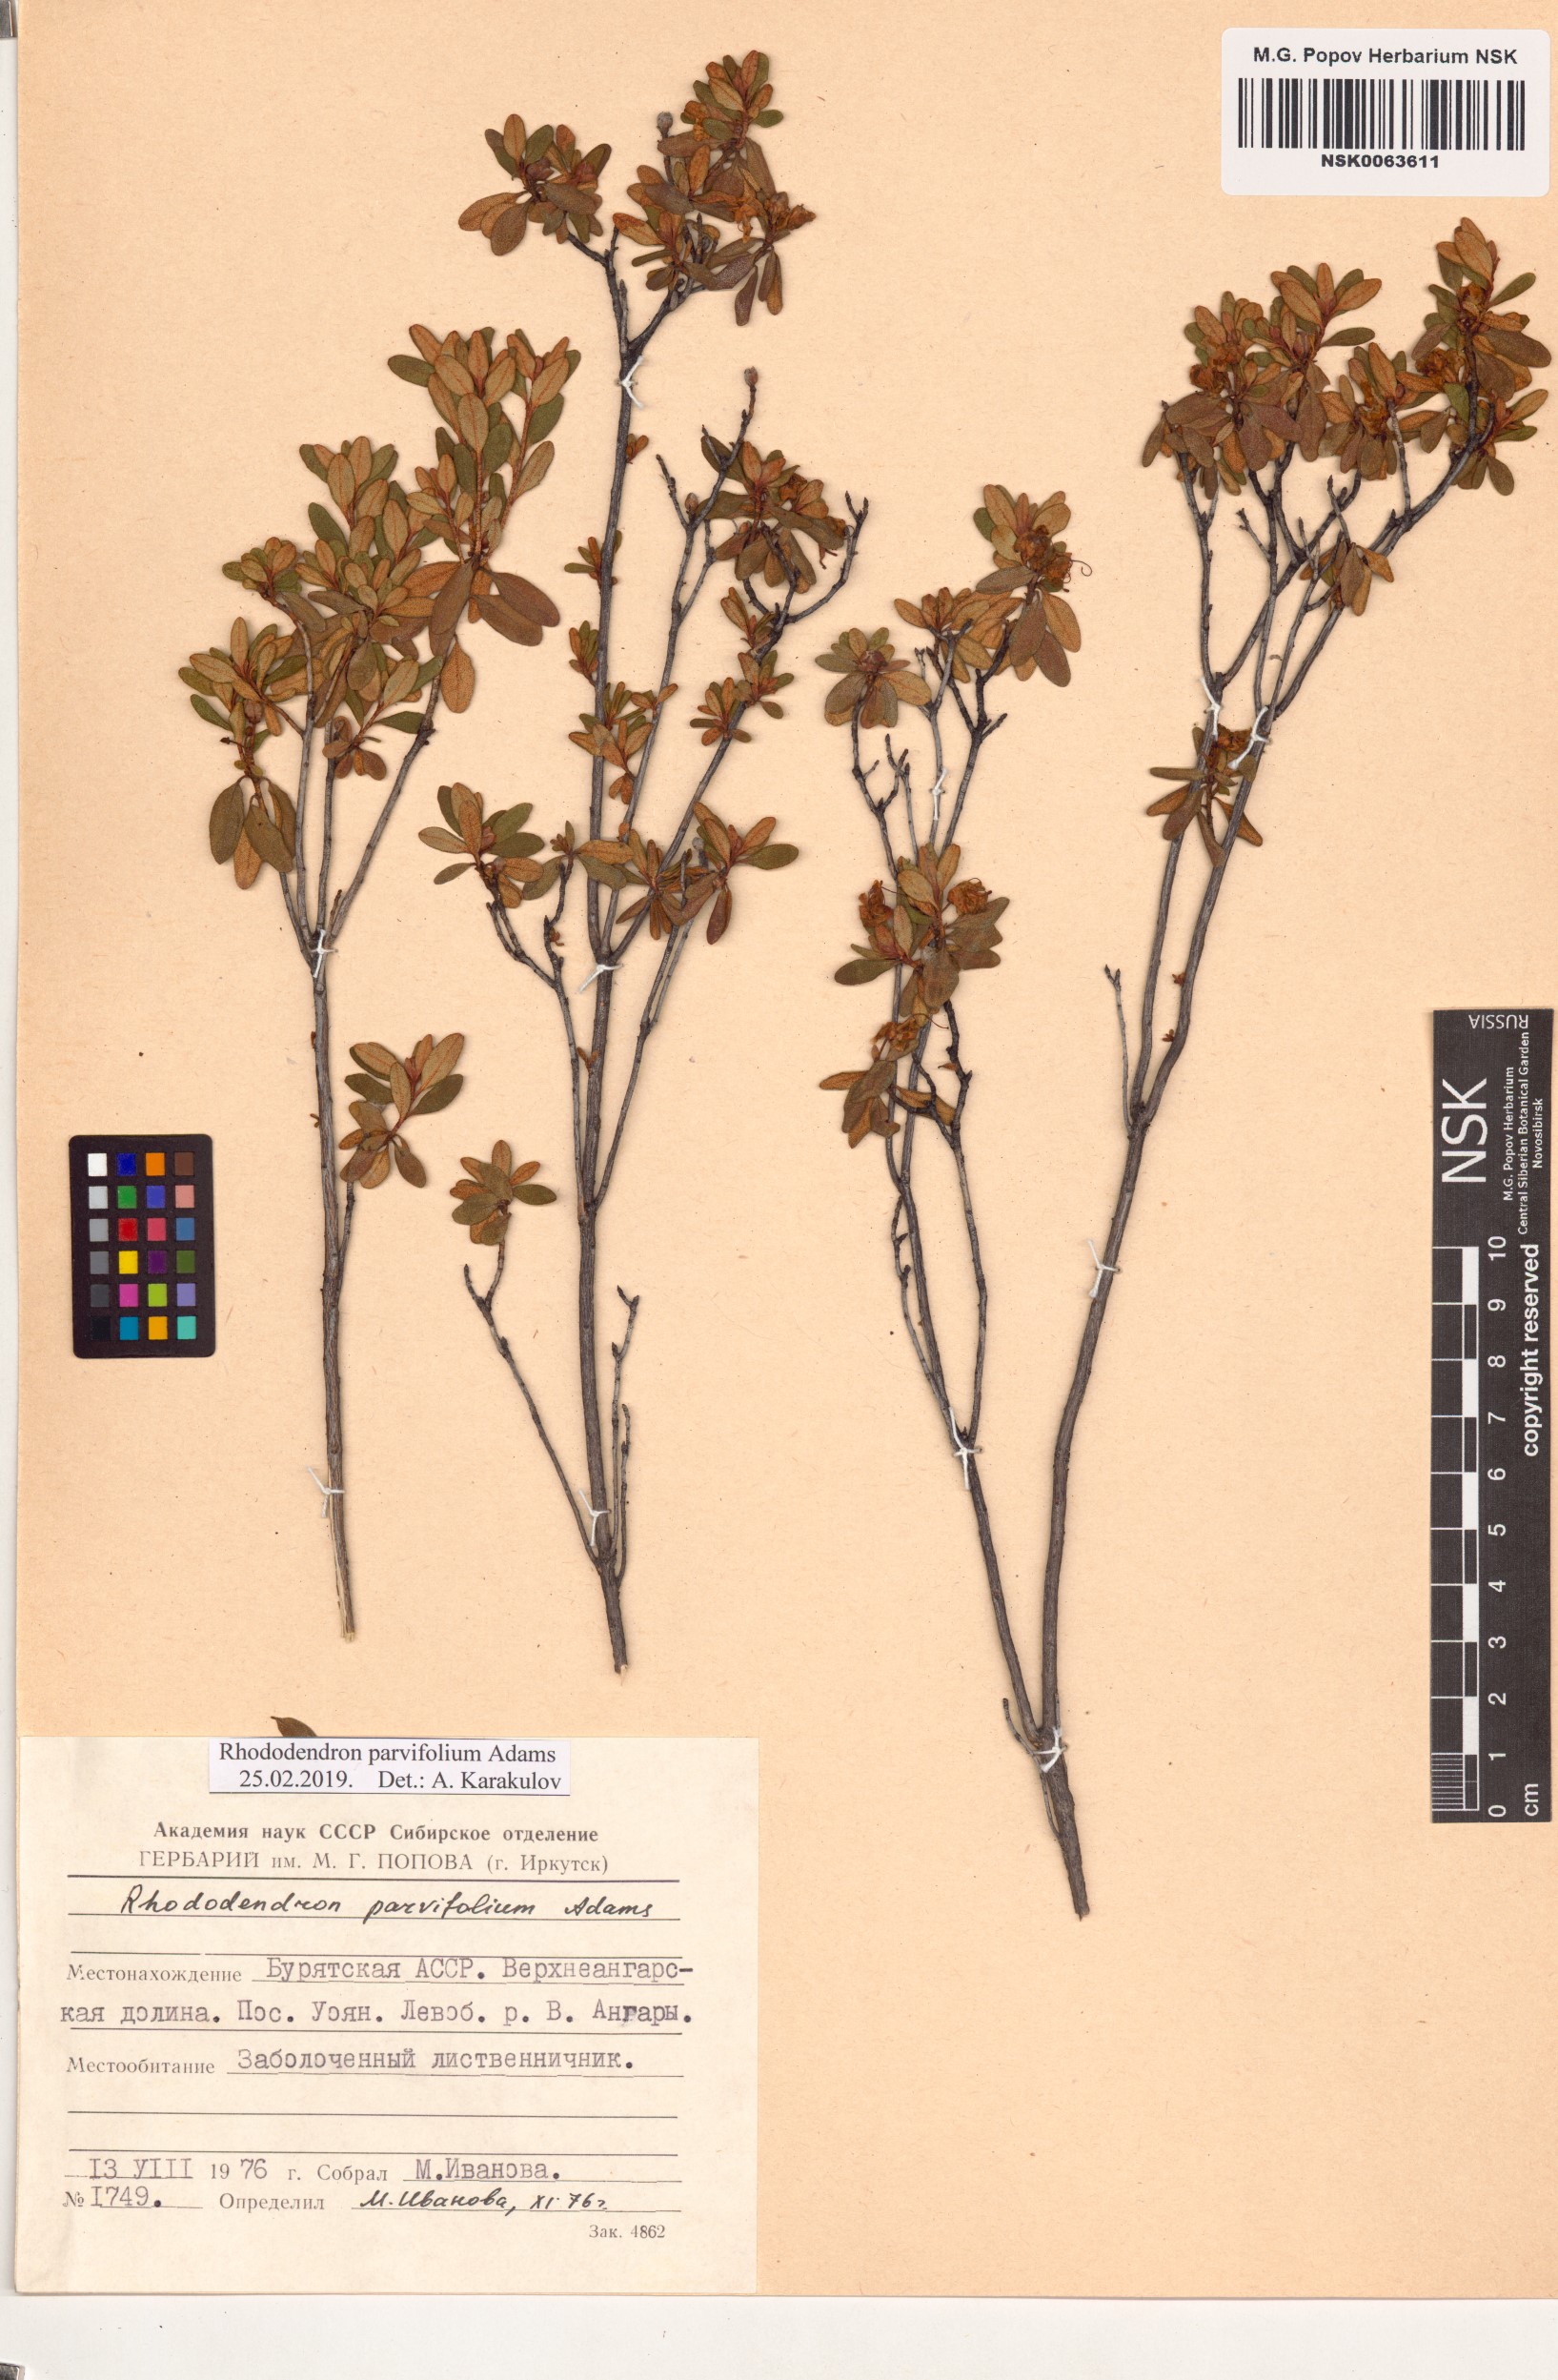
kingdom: Plantae
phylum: Tracheophyta
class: Magnoliopsida
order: Ericales
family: Ericaceae
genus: Rhododendron
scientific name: Rhododendron parvifolium
